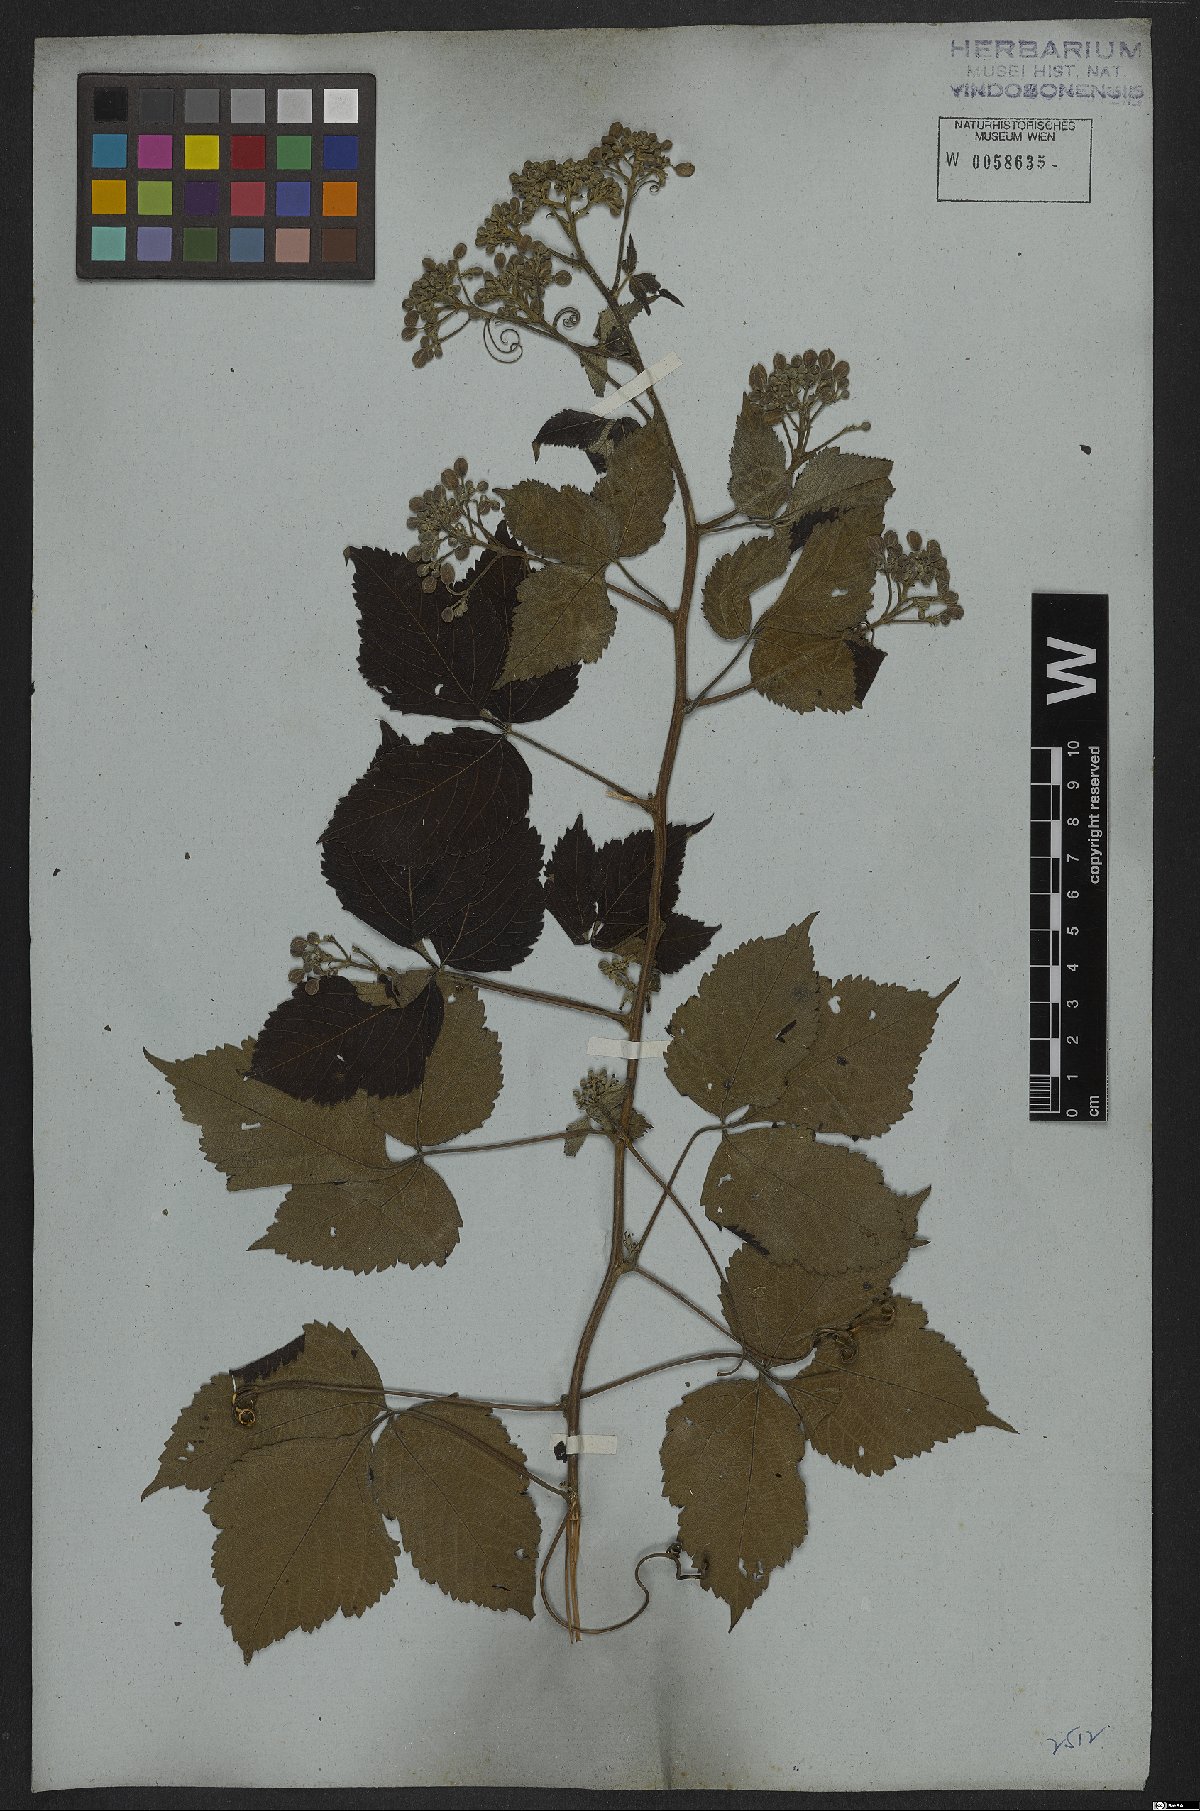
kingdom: Plantae
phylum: Tracheophyta
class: Magnoliopsida
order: Sapindales
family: Sapindaceae
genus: Serjania
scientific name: Serjania platycarpa
